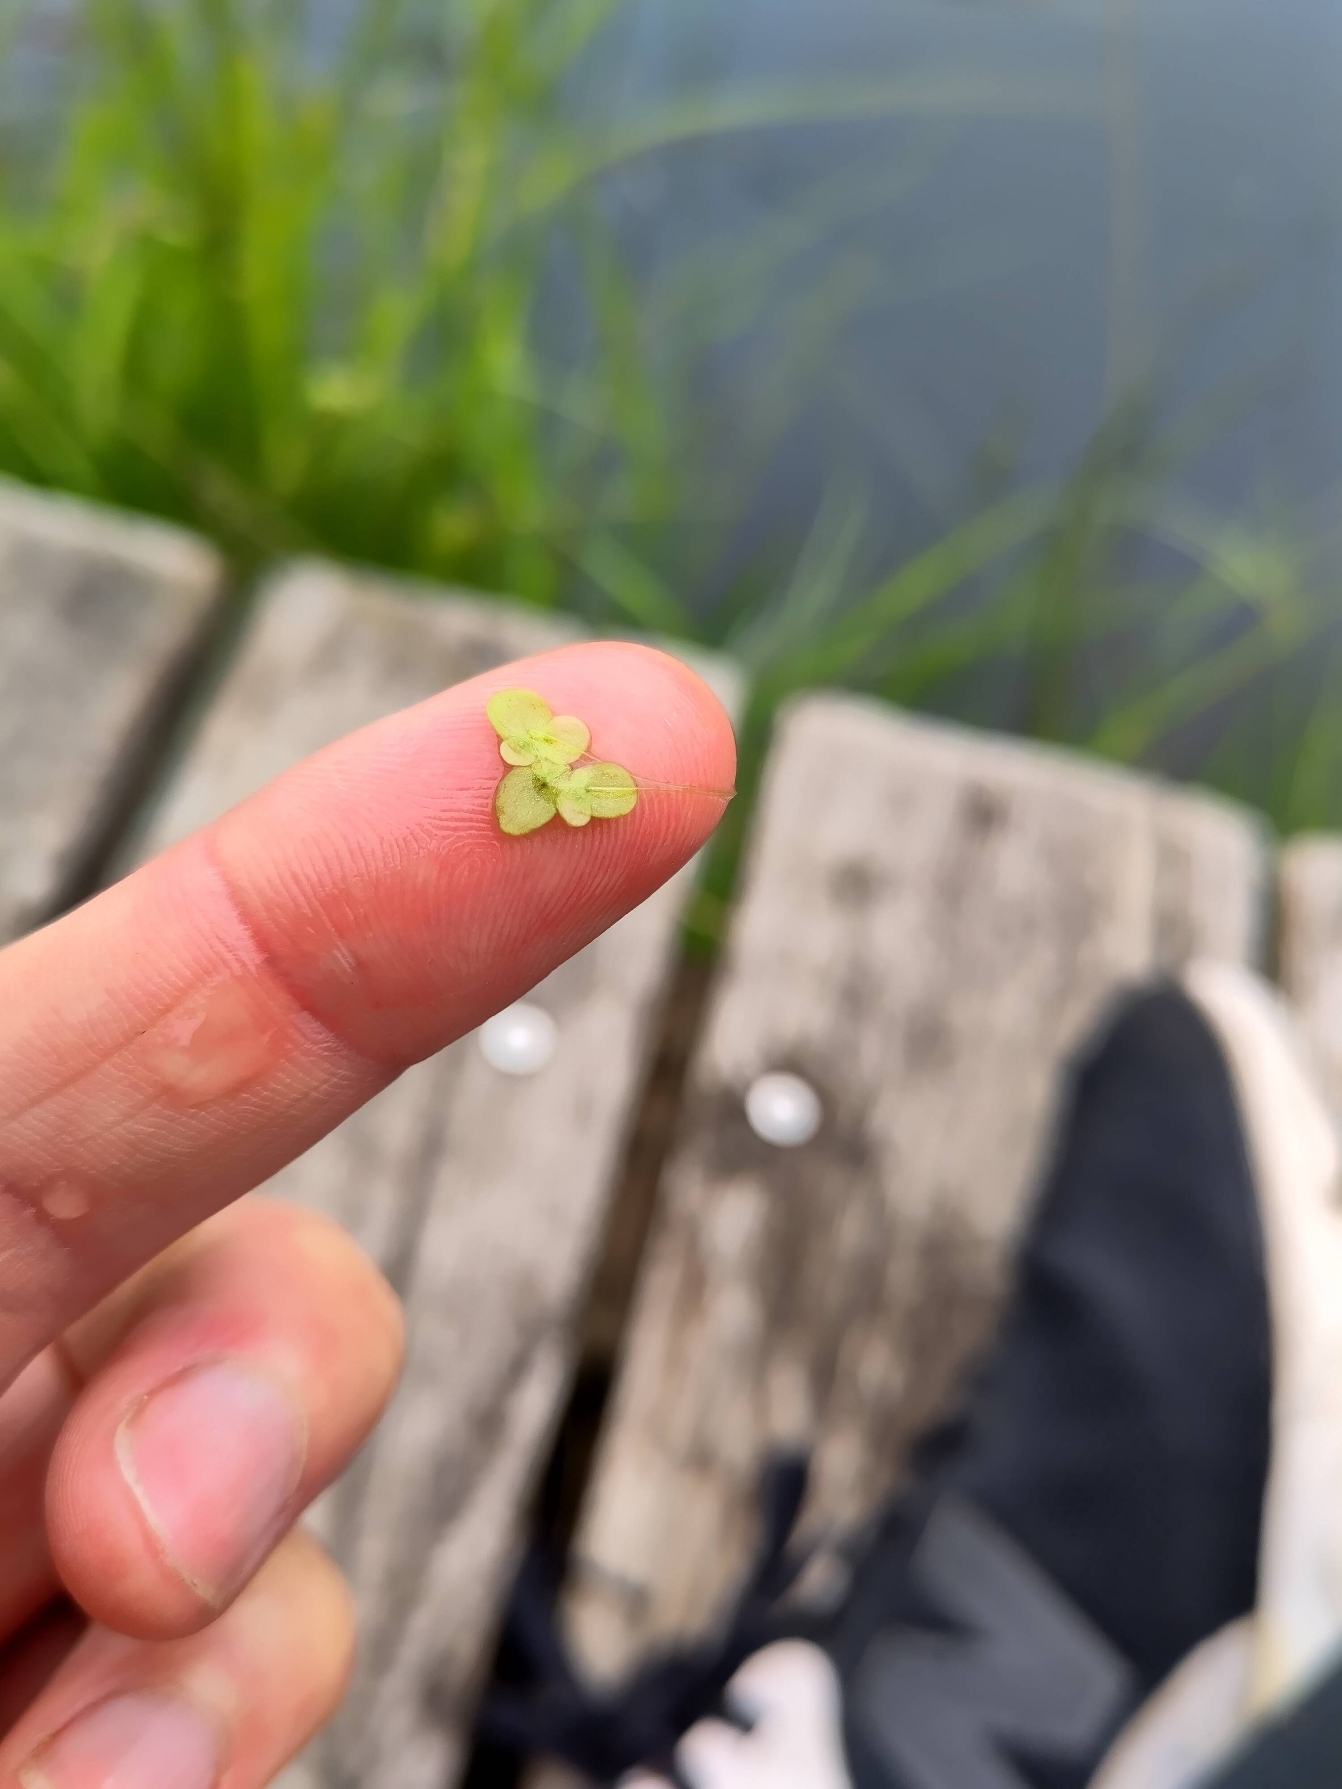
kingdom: Plantae
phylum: Tracheophyta
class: Liliopsida
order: Alismatales
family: Araceae
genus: Lemna
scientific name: Lemna minor
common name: Liden andemad
